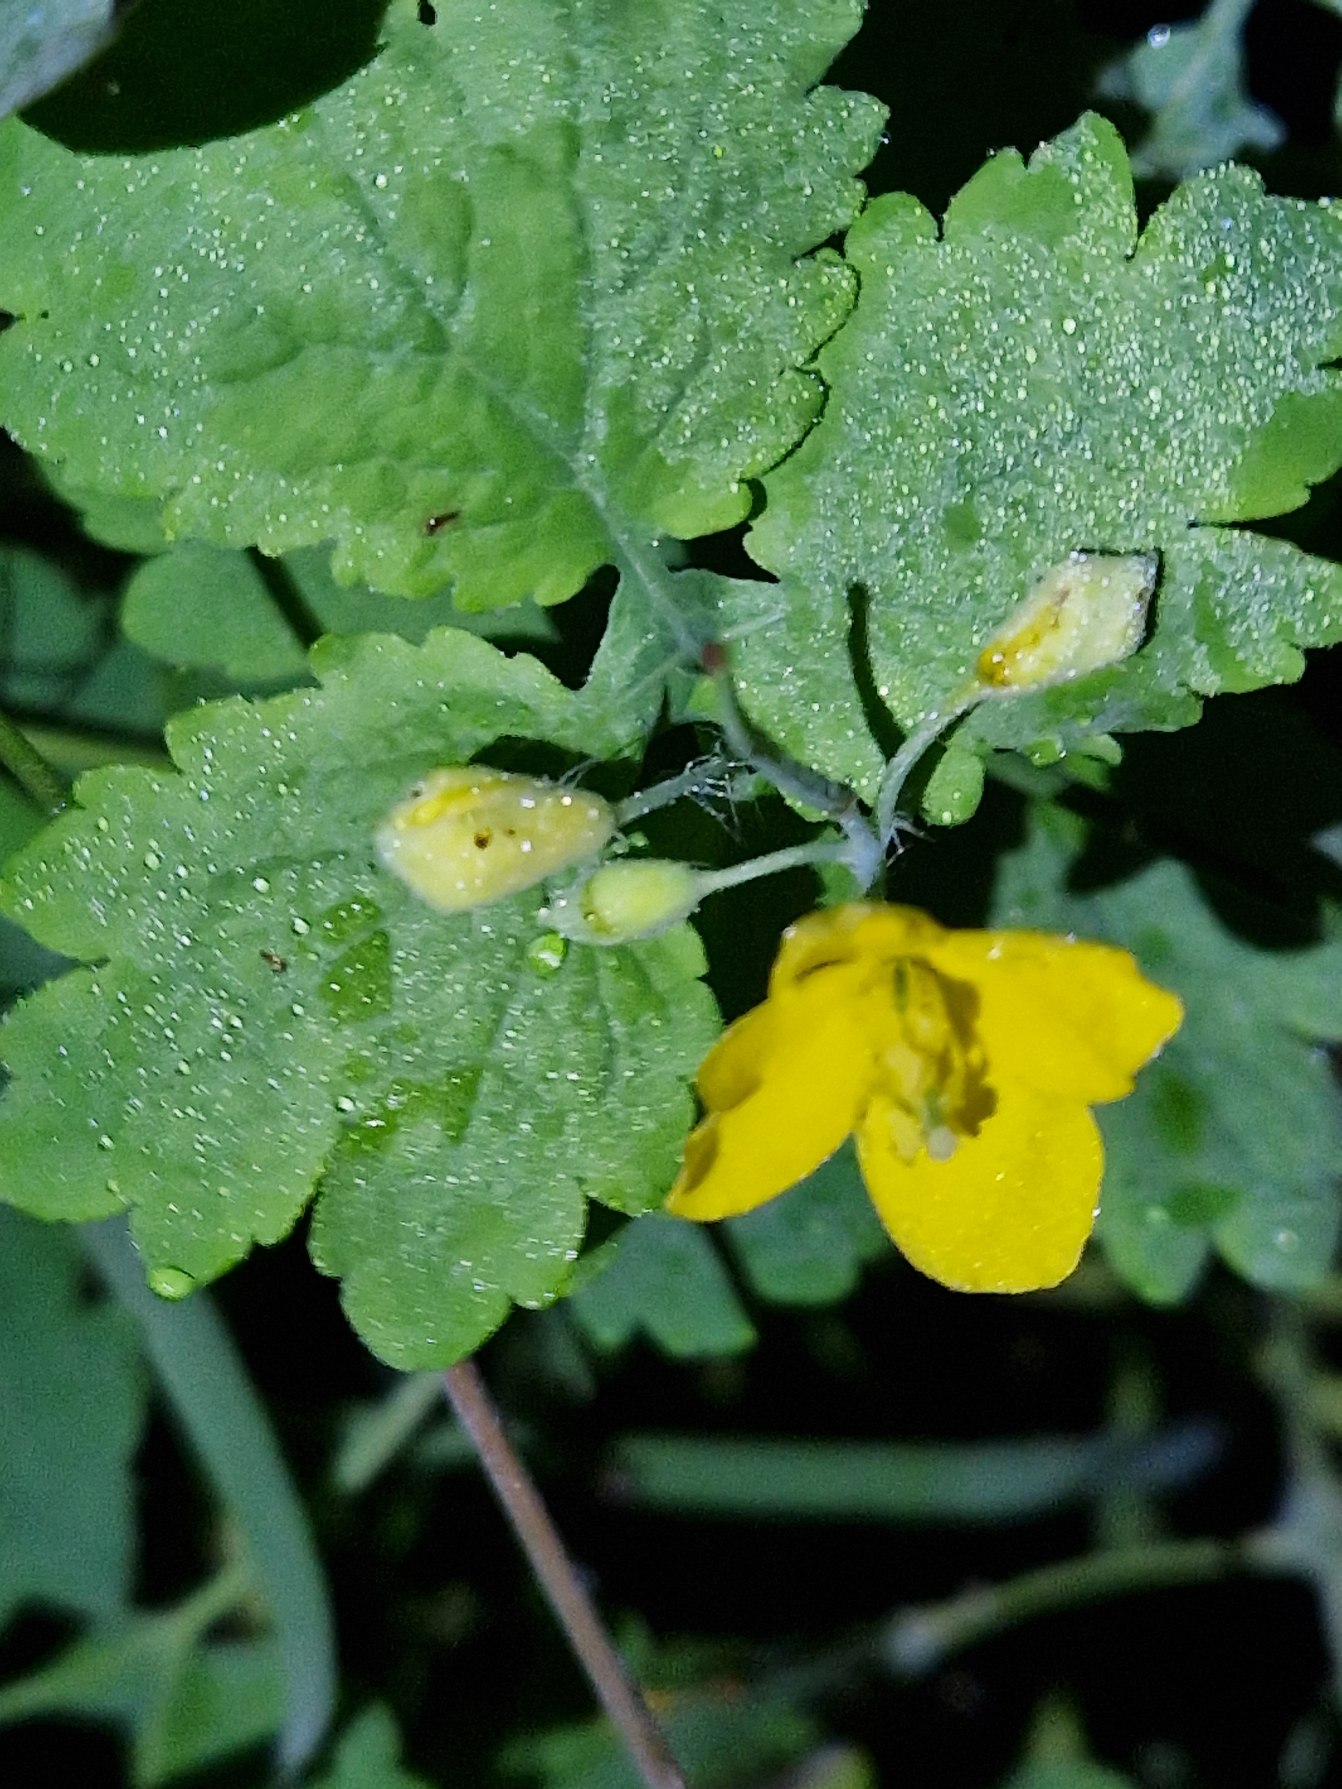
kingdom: Plantae
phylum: Tracheophyta
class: Magnoliopsida
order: Ranunculales
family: Papaveraceae
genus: Chelidonium
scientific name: Chelidonium majus
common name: Svaleurt
